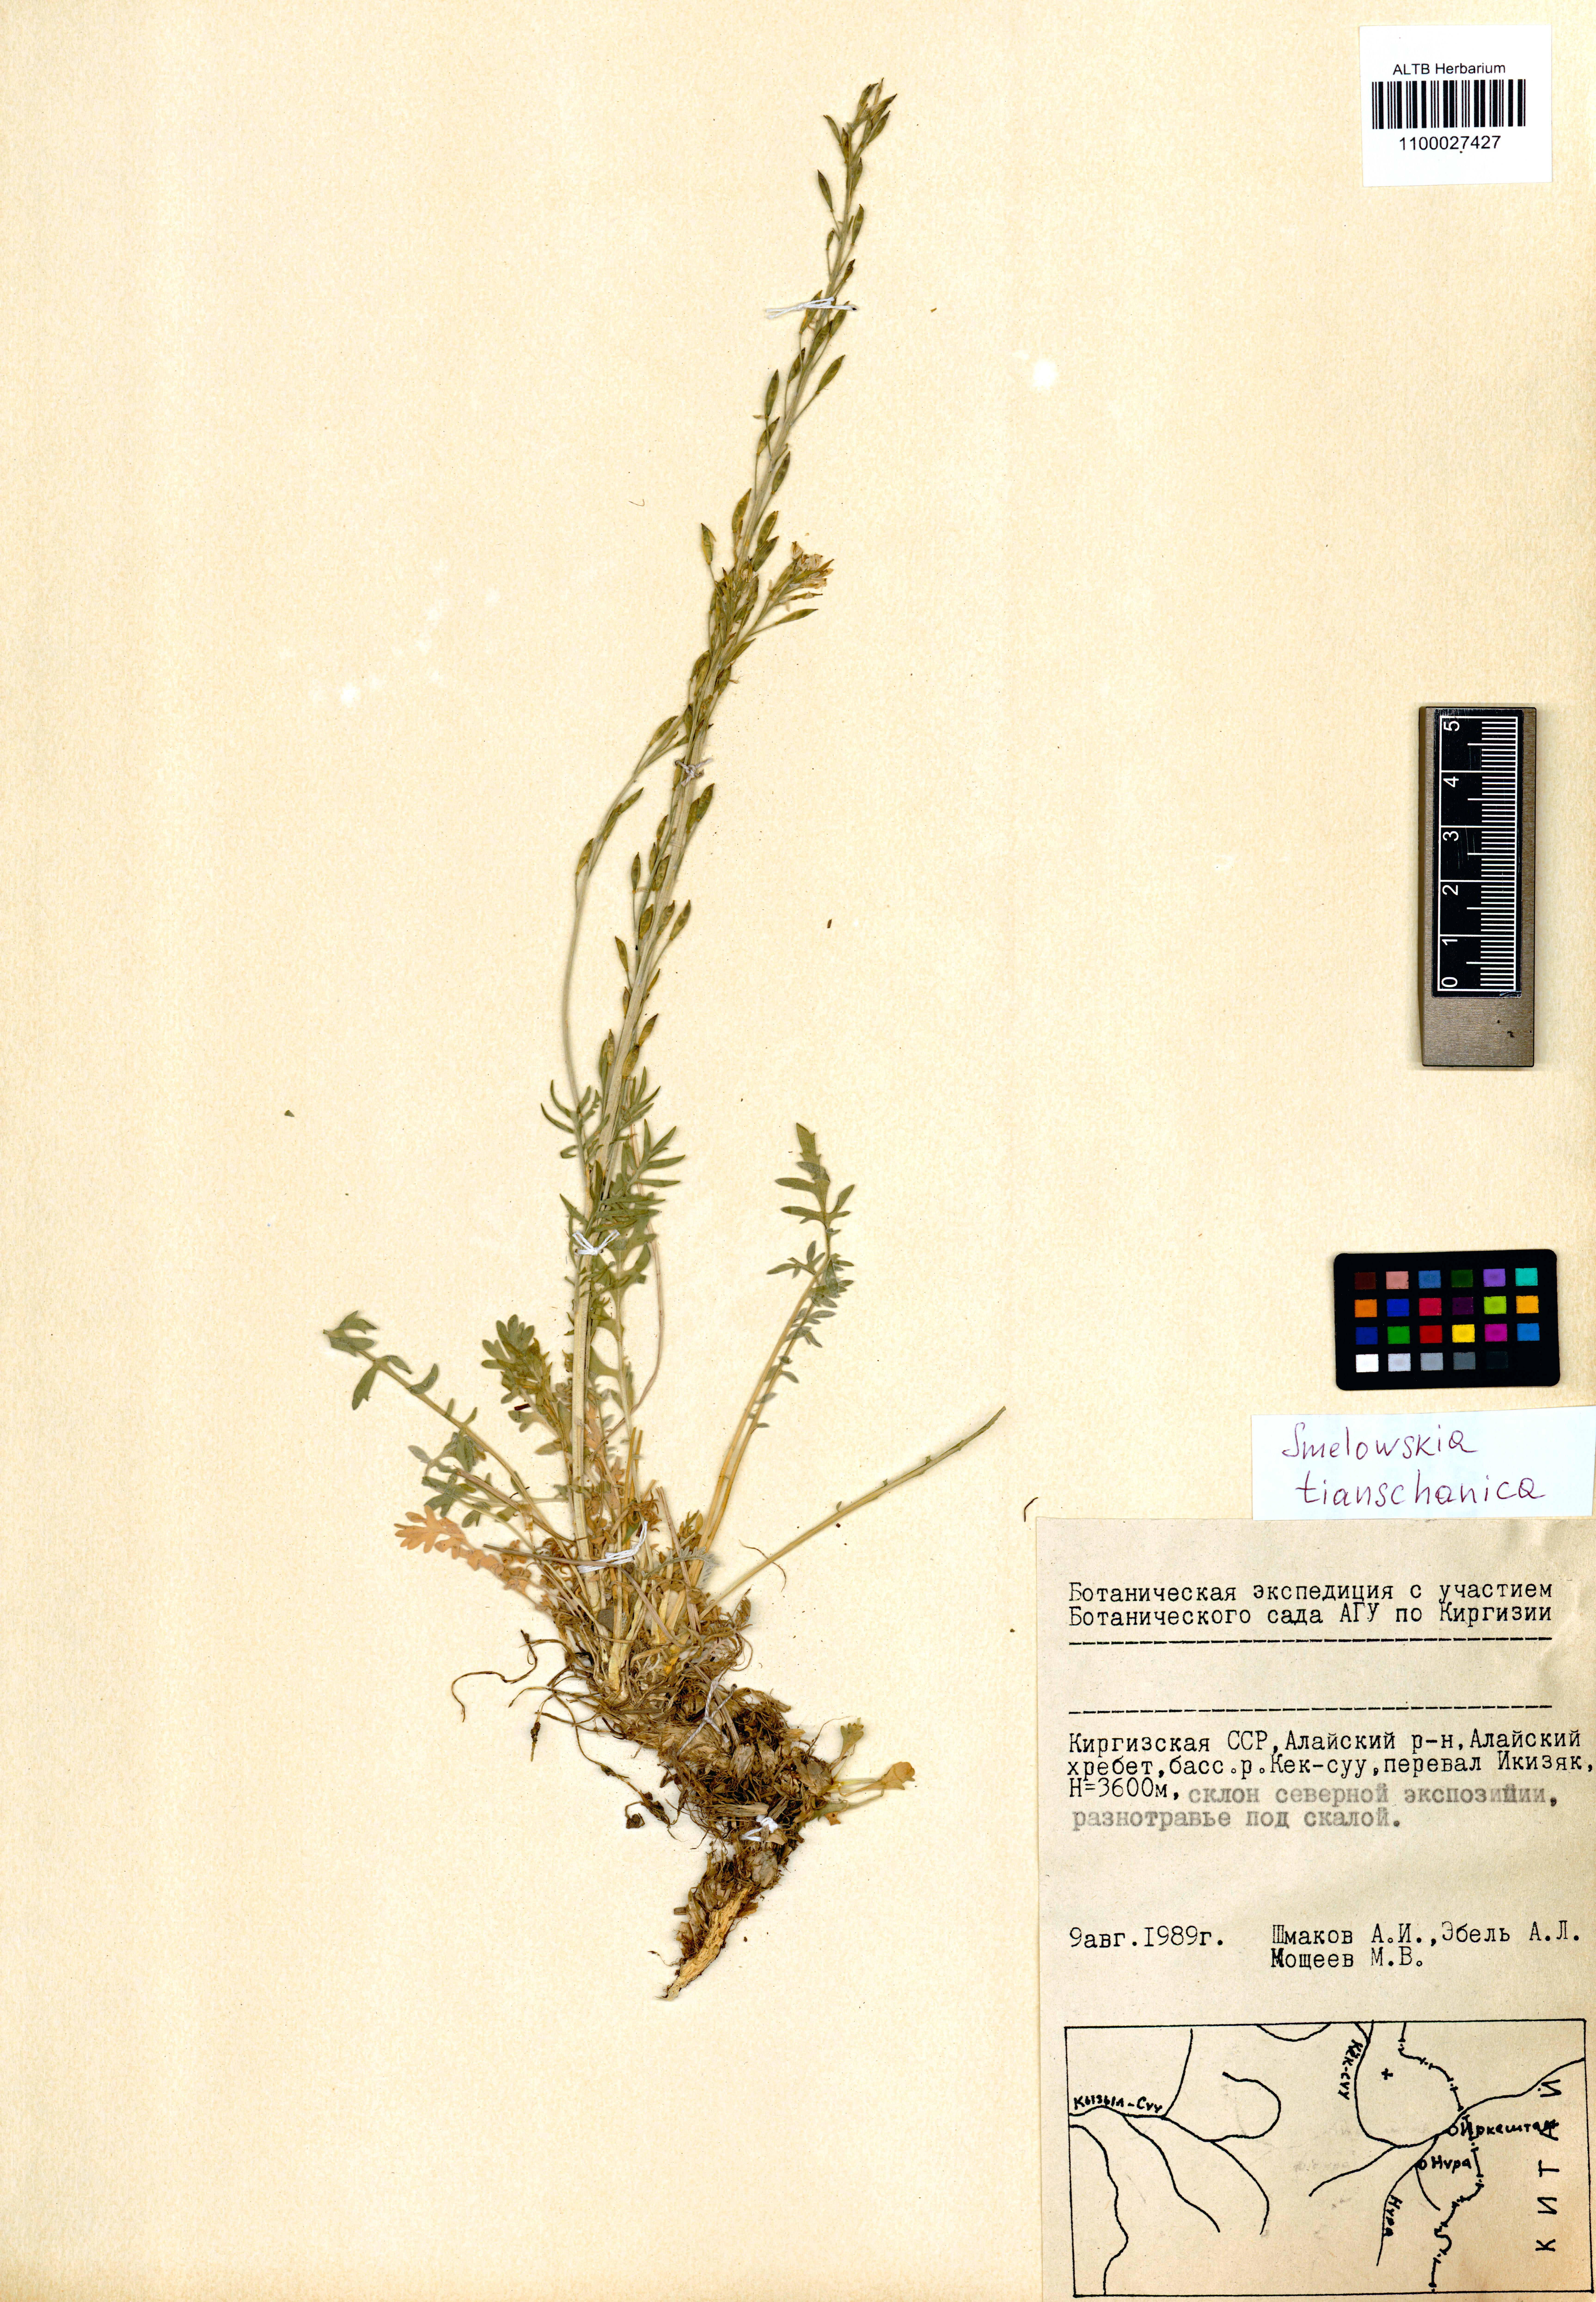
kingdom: Plantae
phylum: Tracheophyta
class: Magnoliopsida
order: Brassicales
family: Brassicaceae
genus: Smelowskia
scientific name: Smelowskia calycina
